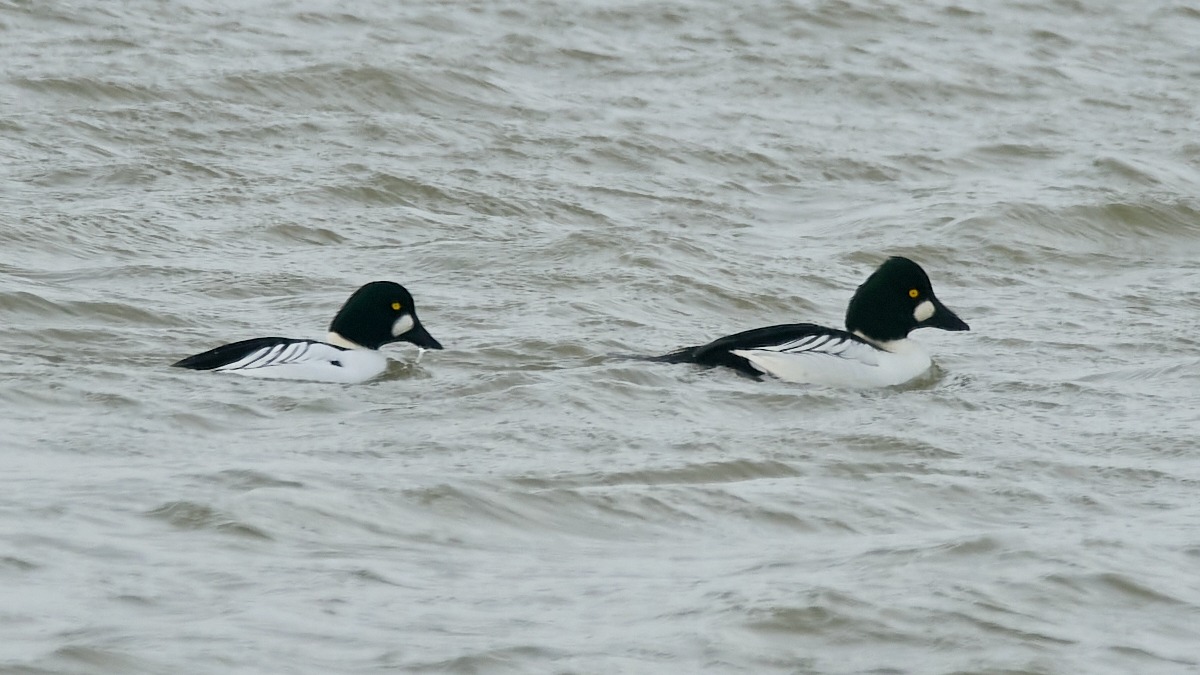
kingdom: Animalia
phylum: Chordata
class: Aves
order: Anseriformes
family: Anatidae
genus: Bucephala
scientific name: Bucephala clangula
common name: Hvinand
